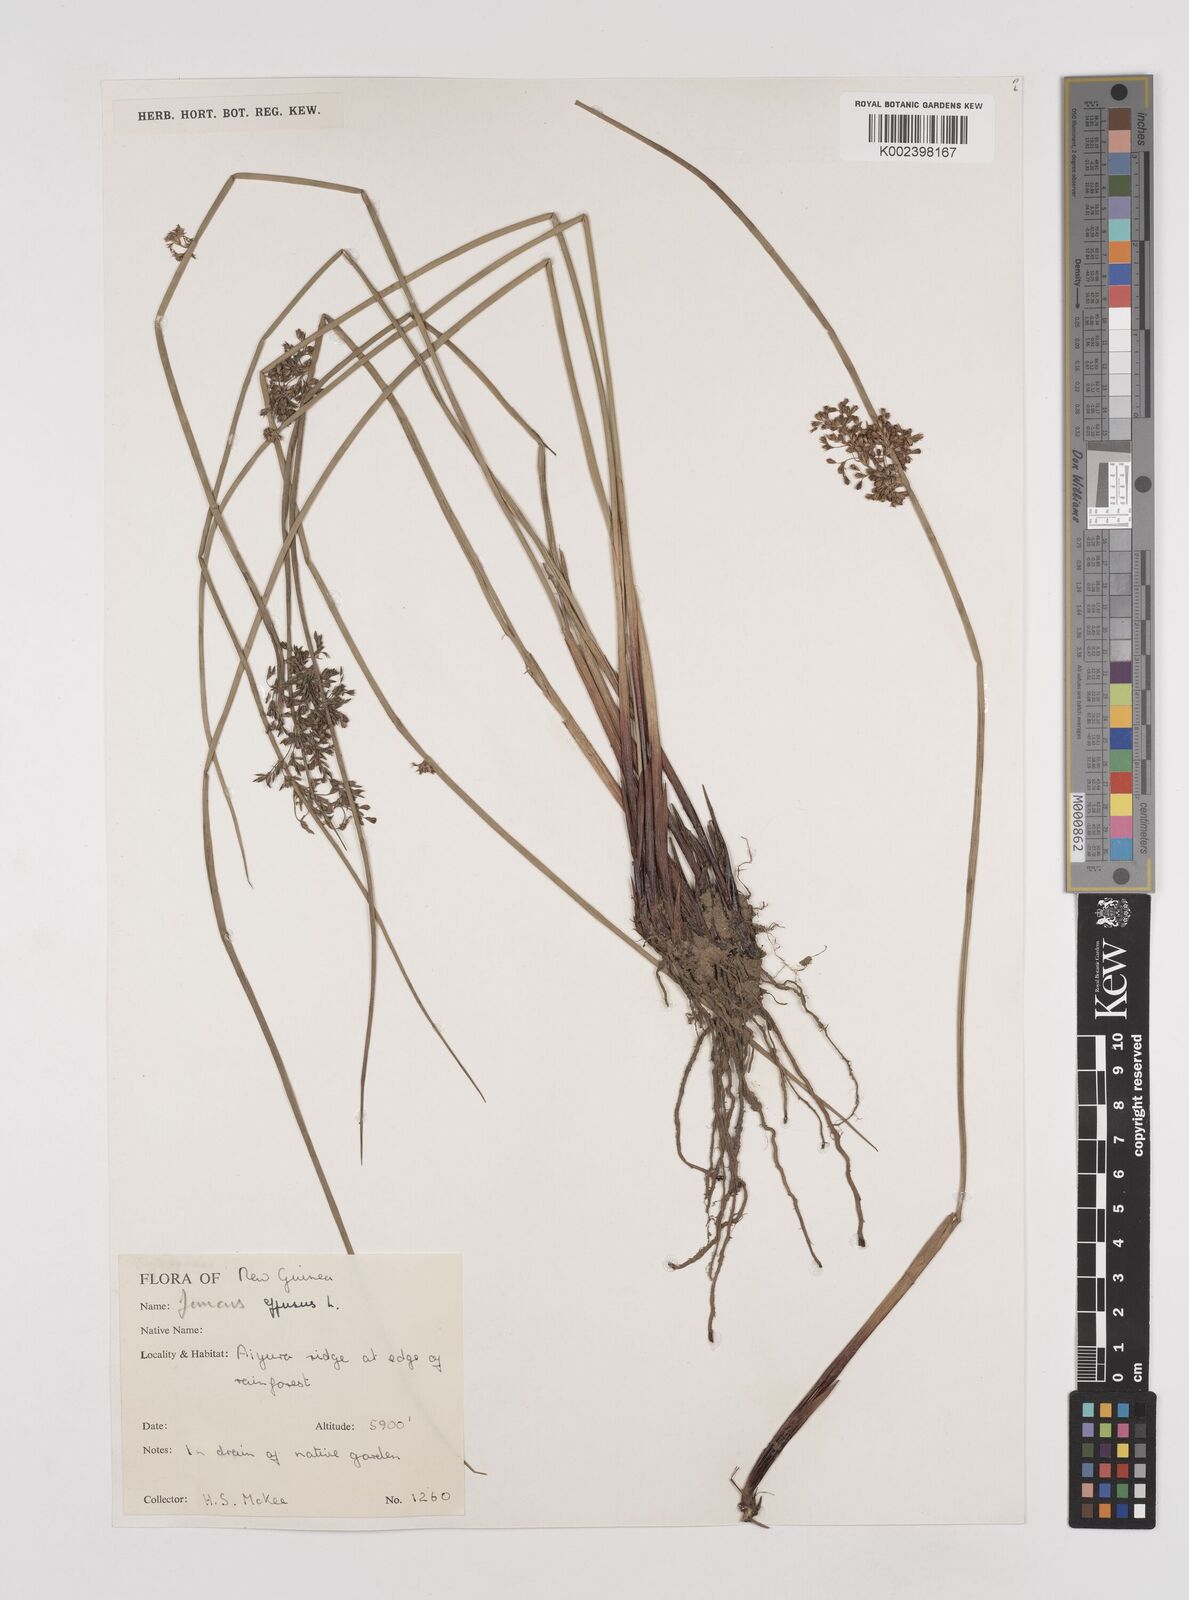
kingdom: Plantae
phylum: Tracheophyta
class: Liliopsida
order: Poales
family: Juncaceae
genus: Juncus
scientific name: Juncus effusus
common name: Soft rush
